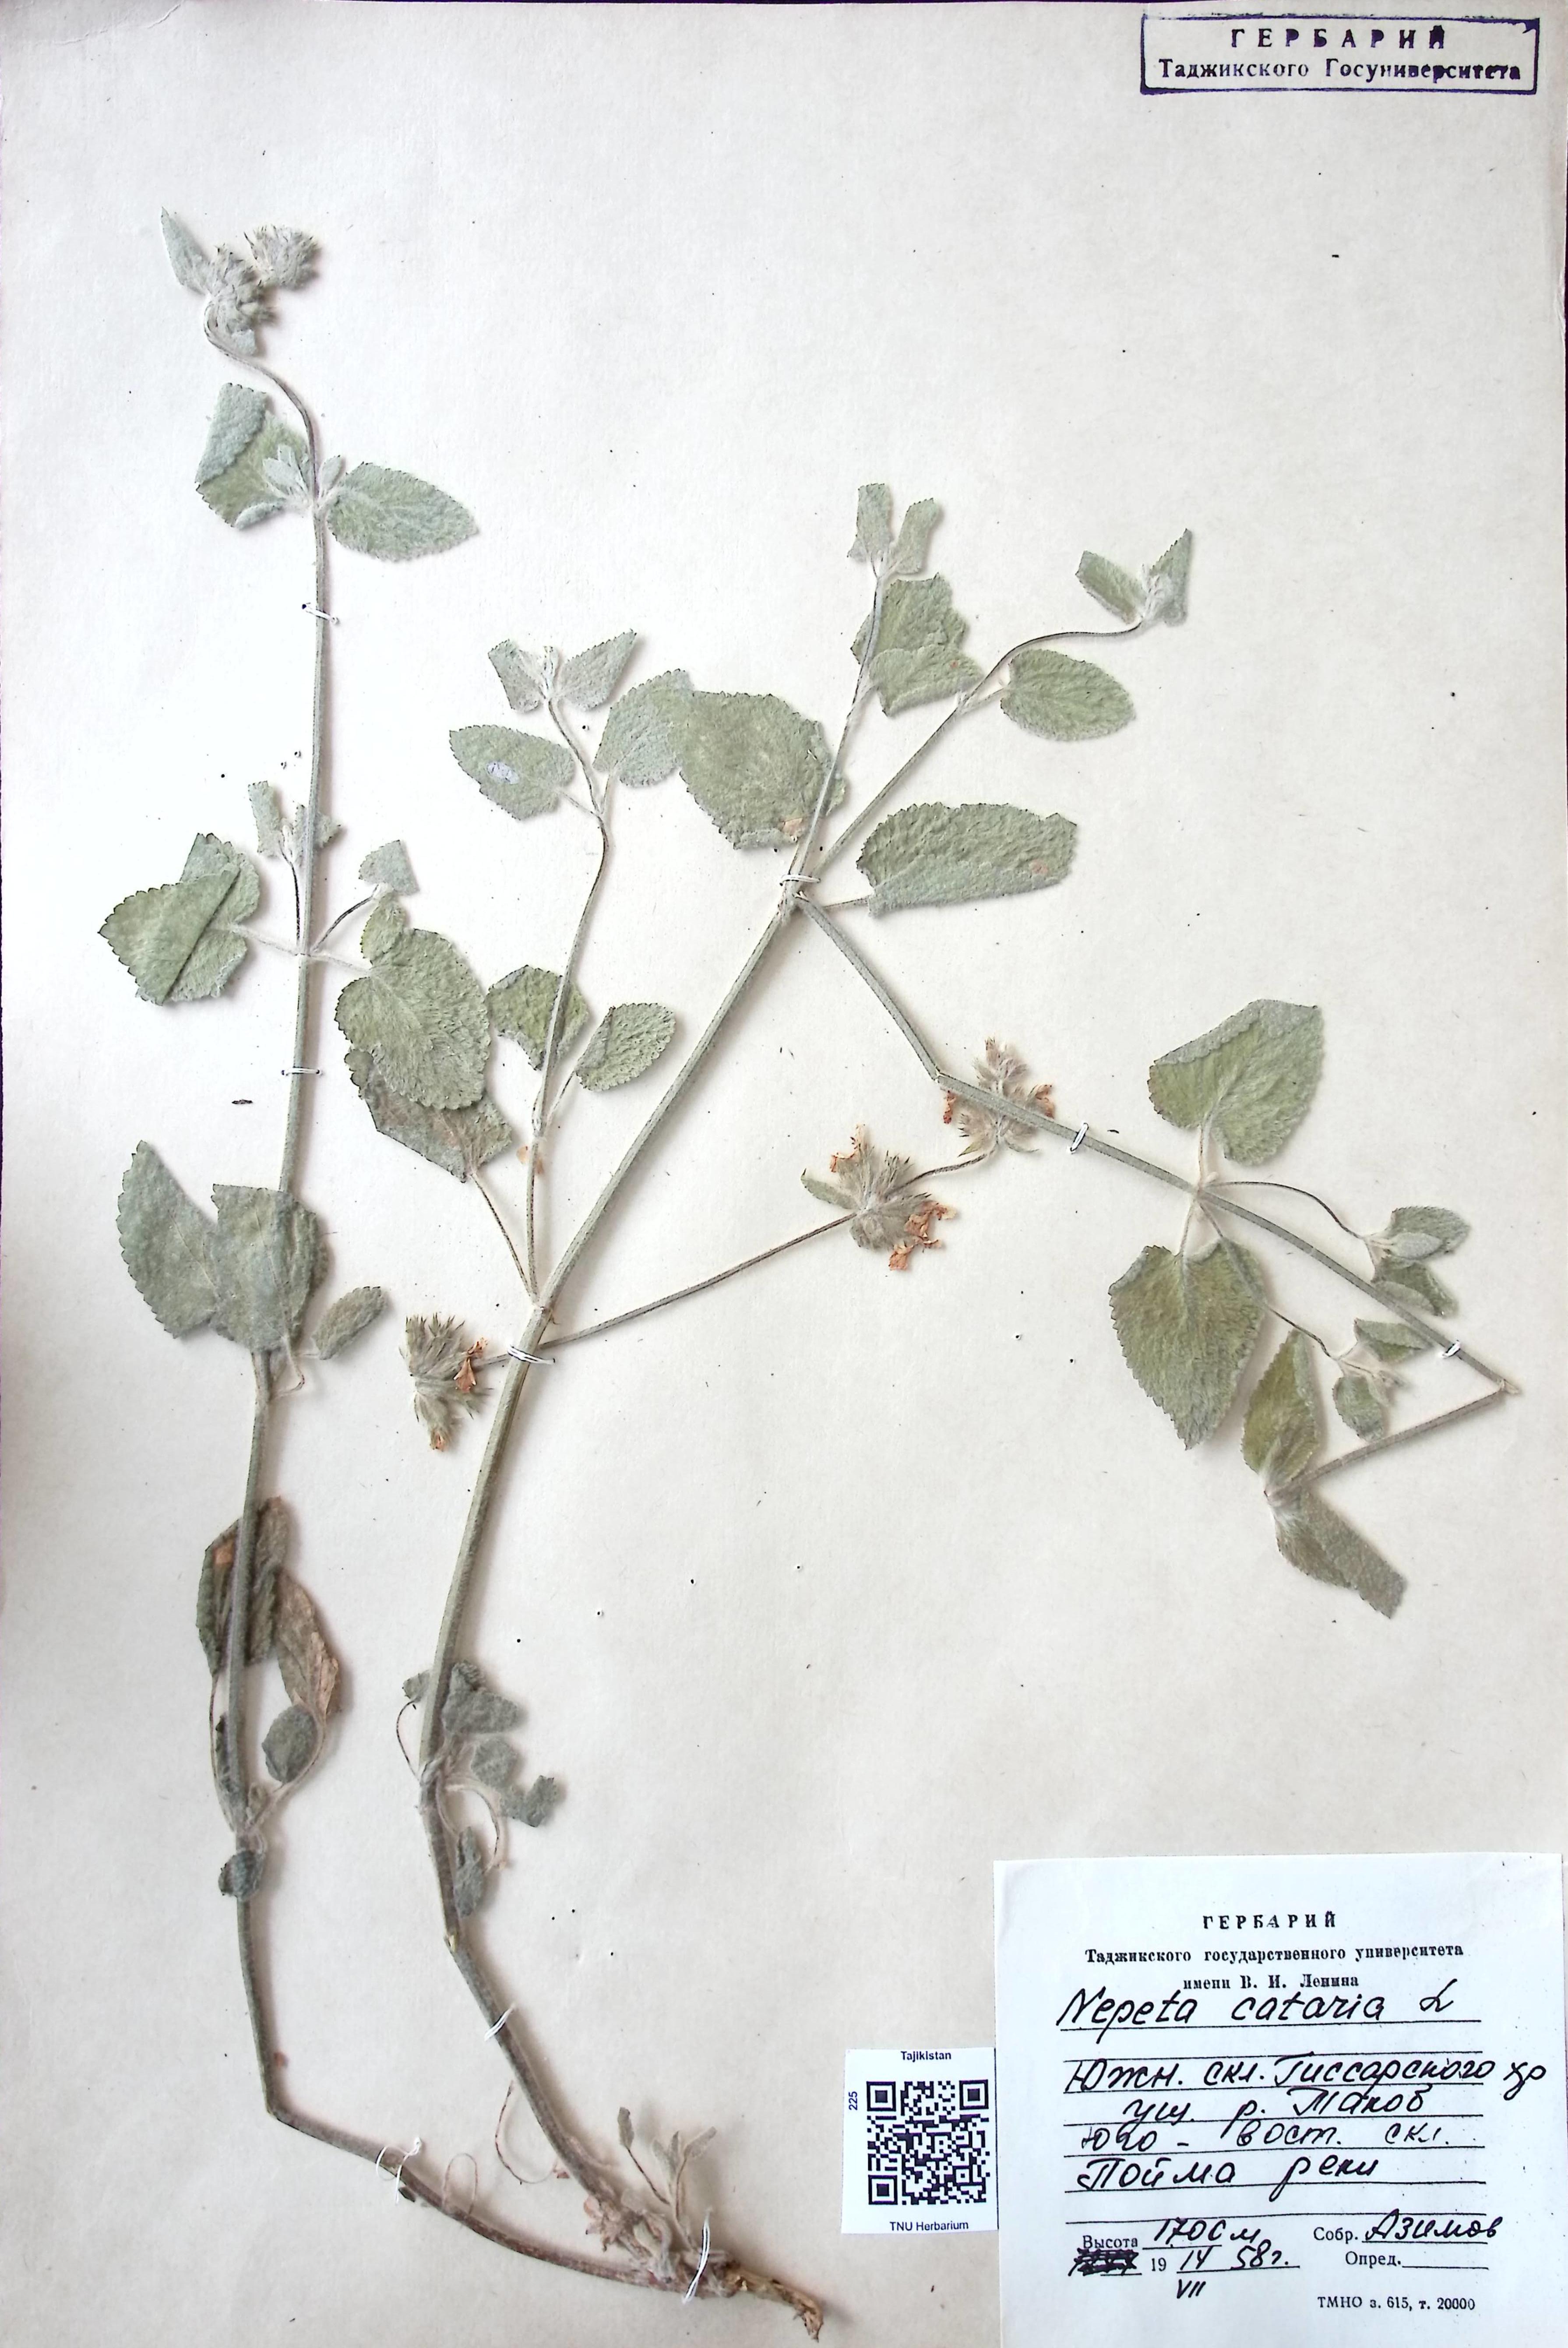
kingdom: Plantae
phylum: Tracheophyta
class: Magnoliopsida
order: Lamiales
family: Lamiaceae
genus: Nepeta
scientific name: Nepeta cataria
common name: Catnip
